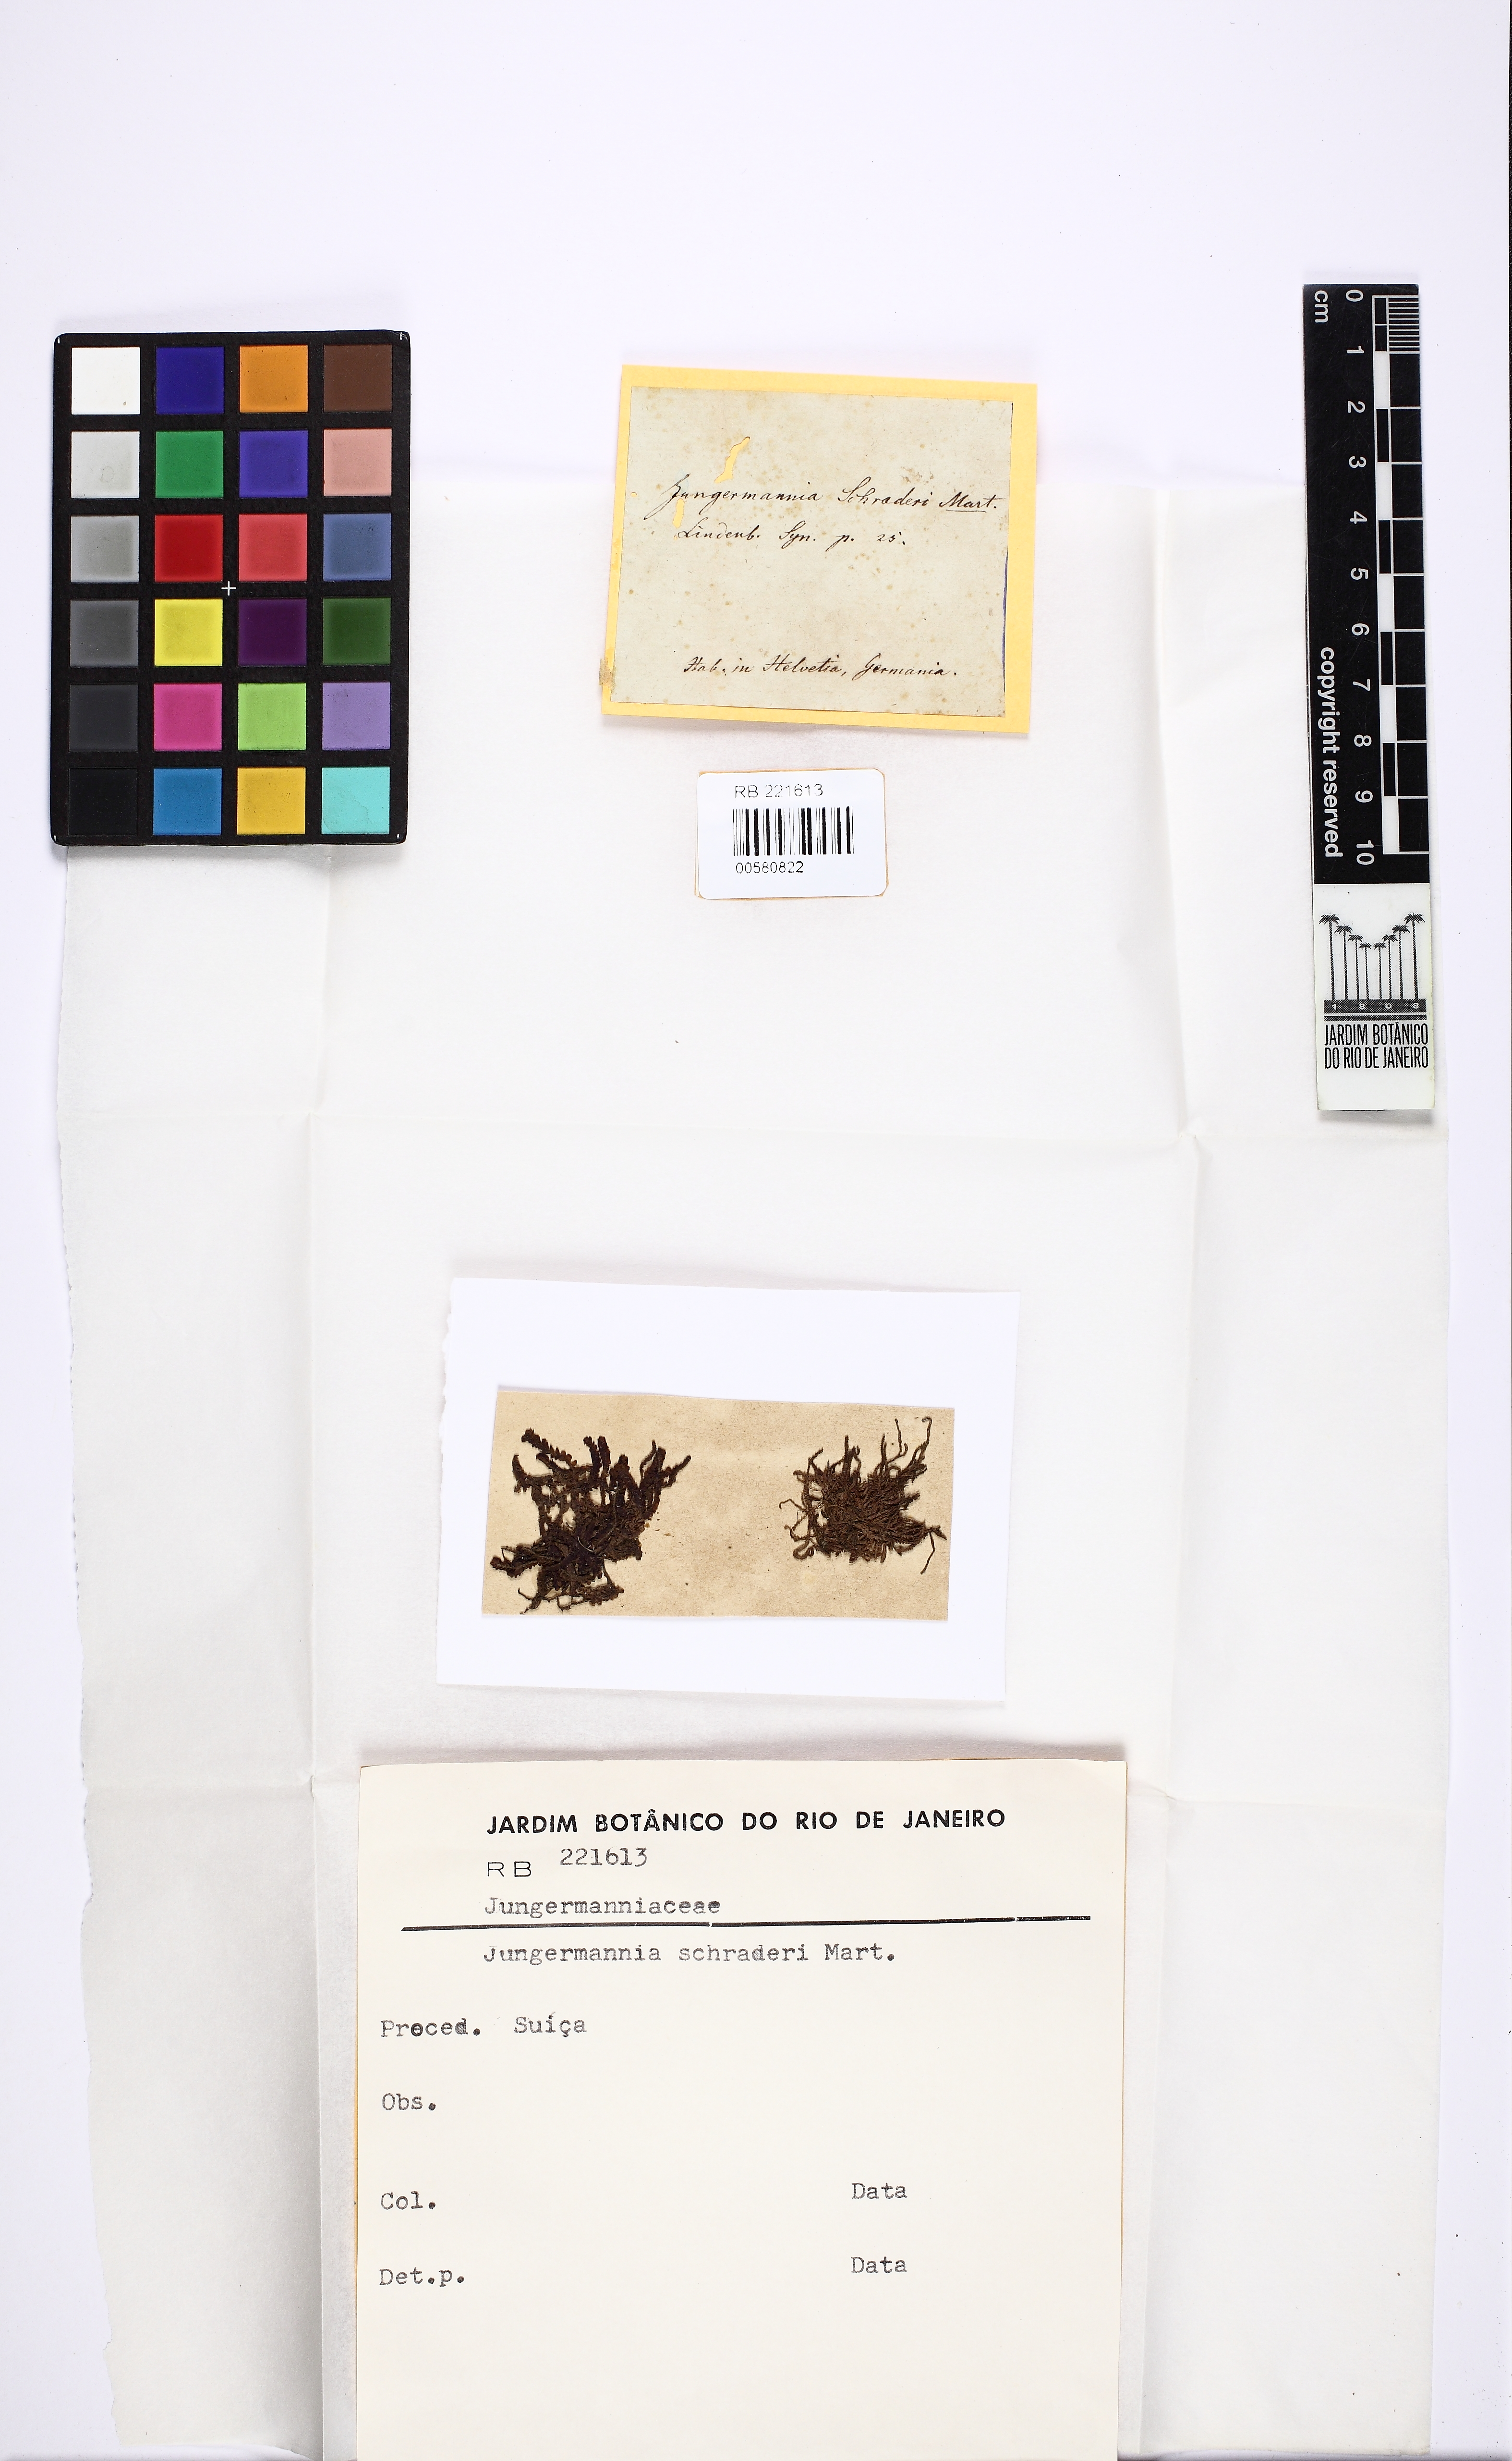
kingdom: Plantae
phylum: Marchantiophyta
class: Jungermanniopsida
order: Jungermanniales
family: Adelanthaceae
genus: Syzygiella
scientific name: Syzygiella autumnalis
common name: Jameson's liverwort
